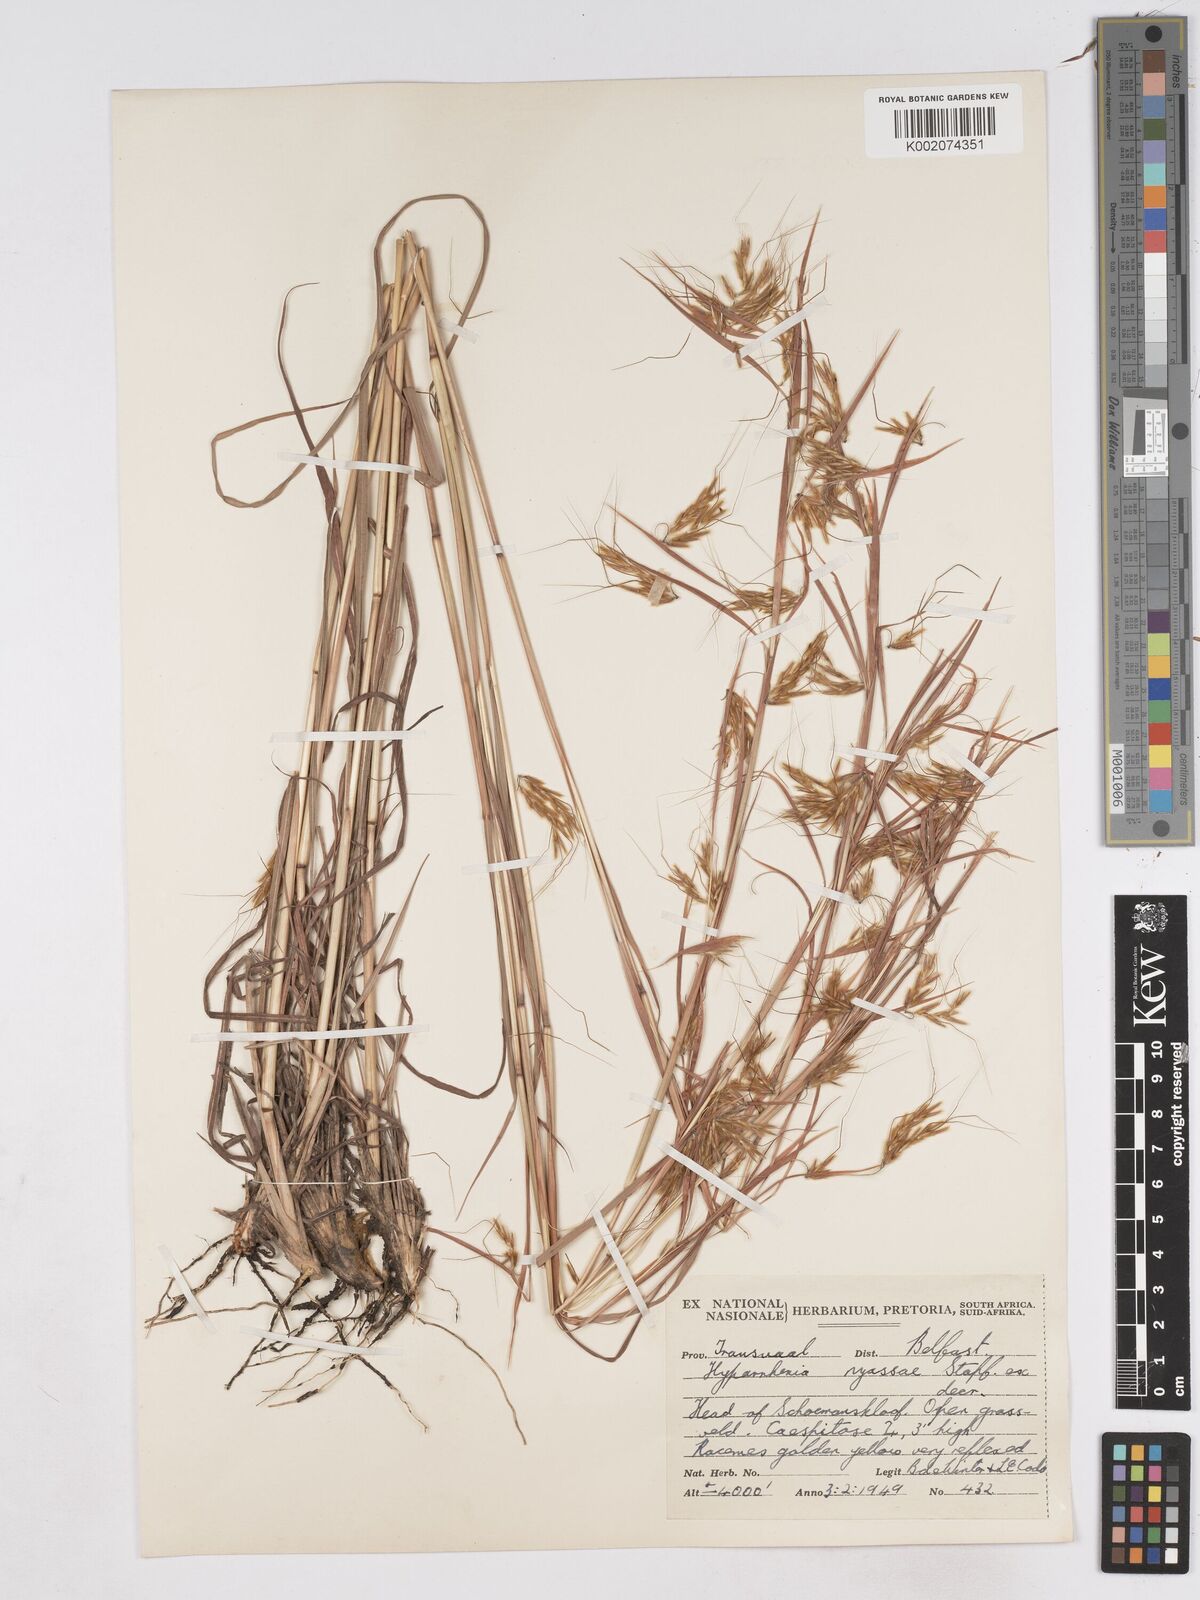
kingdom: Plantae
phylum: Tracheophyta
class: Liliopsida
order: Poales
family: Poaceae
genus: Hyparrhenia
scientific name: Hyparrhenia nyassae
